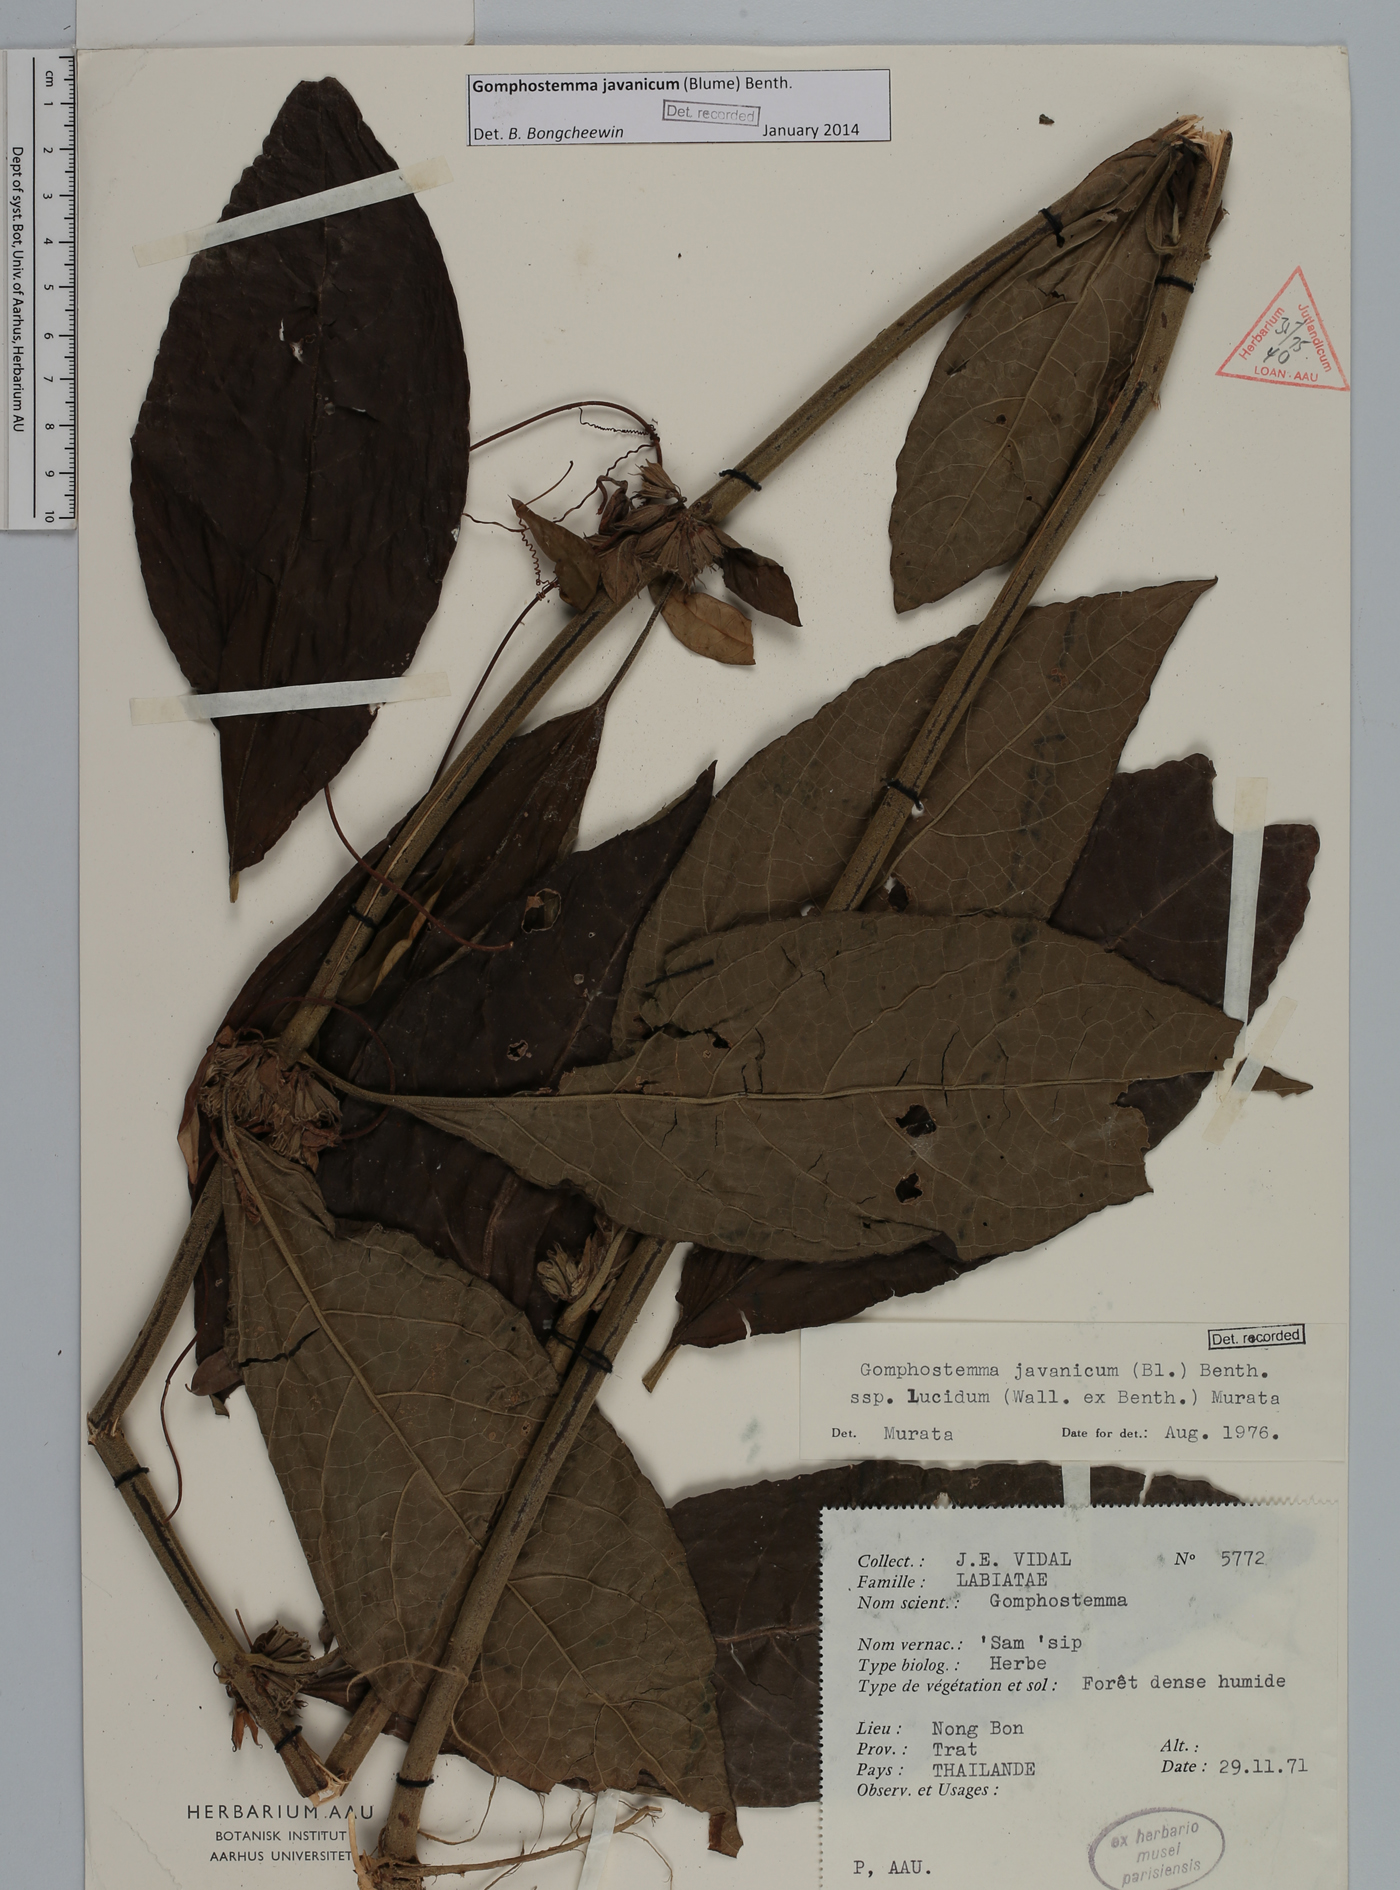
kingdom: Plantae
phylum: Tracheophyta
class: Magnoliopsida
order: Lamiales
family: Lamiaceae
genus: Gomphostemma
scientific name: Gomphostemma javanicum
